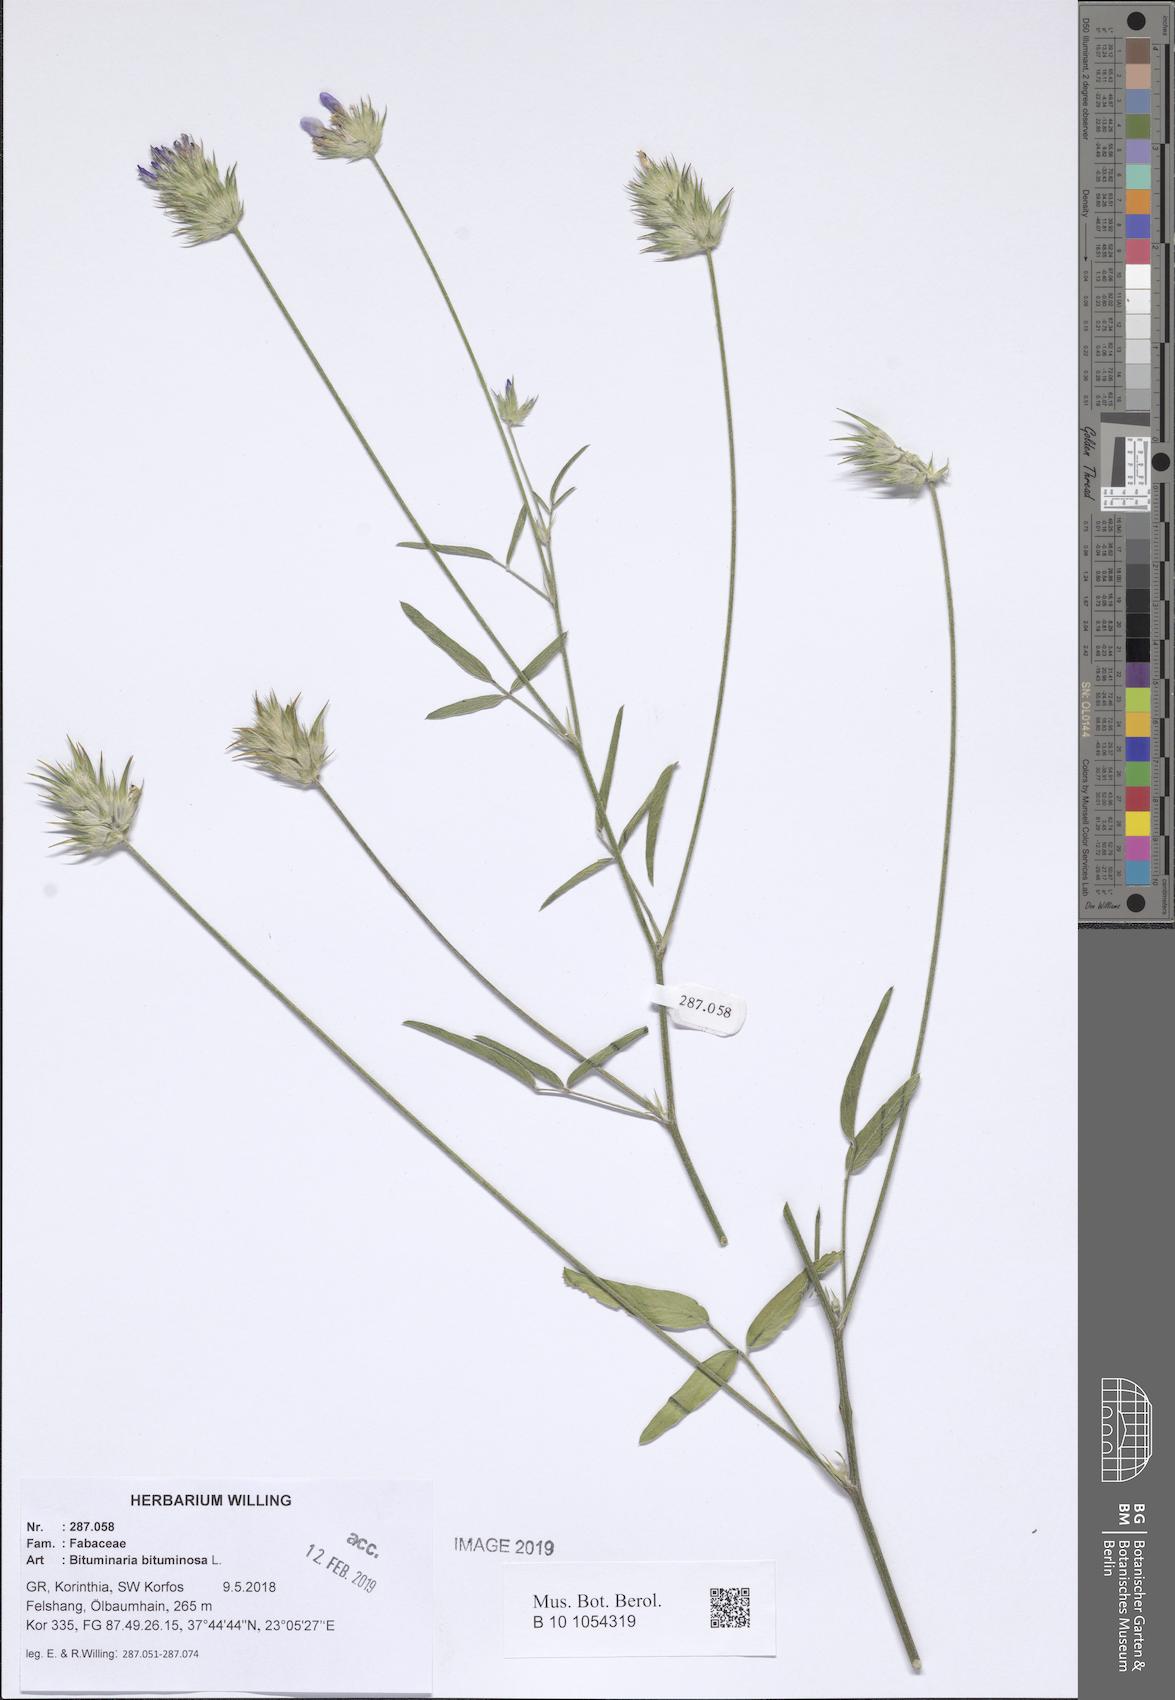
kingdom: Plantae
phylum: Tracheophyta
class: Magnoliopsida
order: Fabales
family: Fabaceae
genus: Bituminaria
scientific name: Bituminaria bituminosa
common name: Arabian pea
